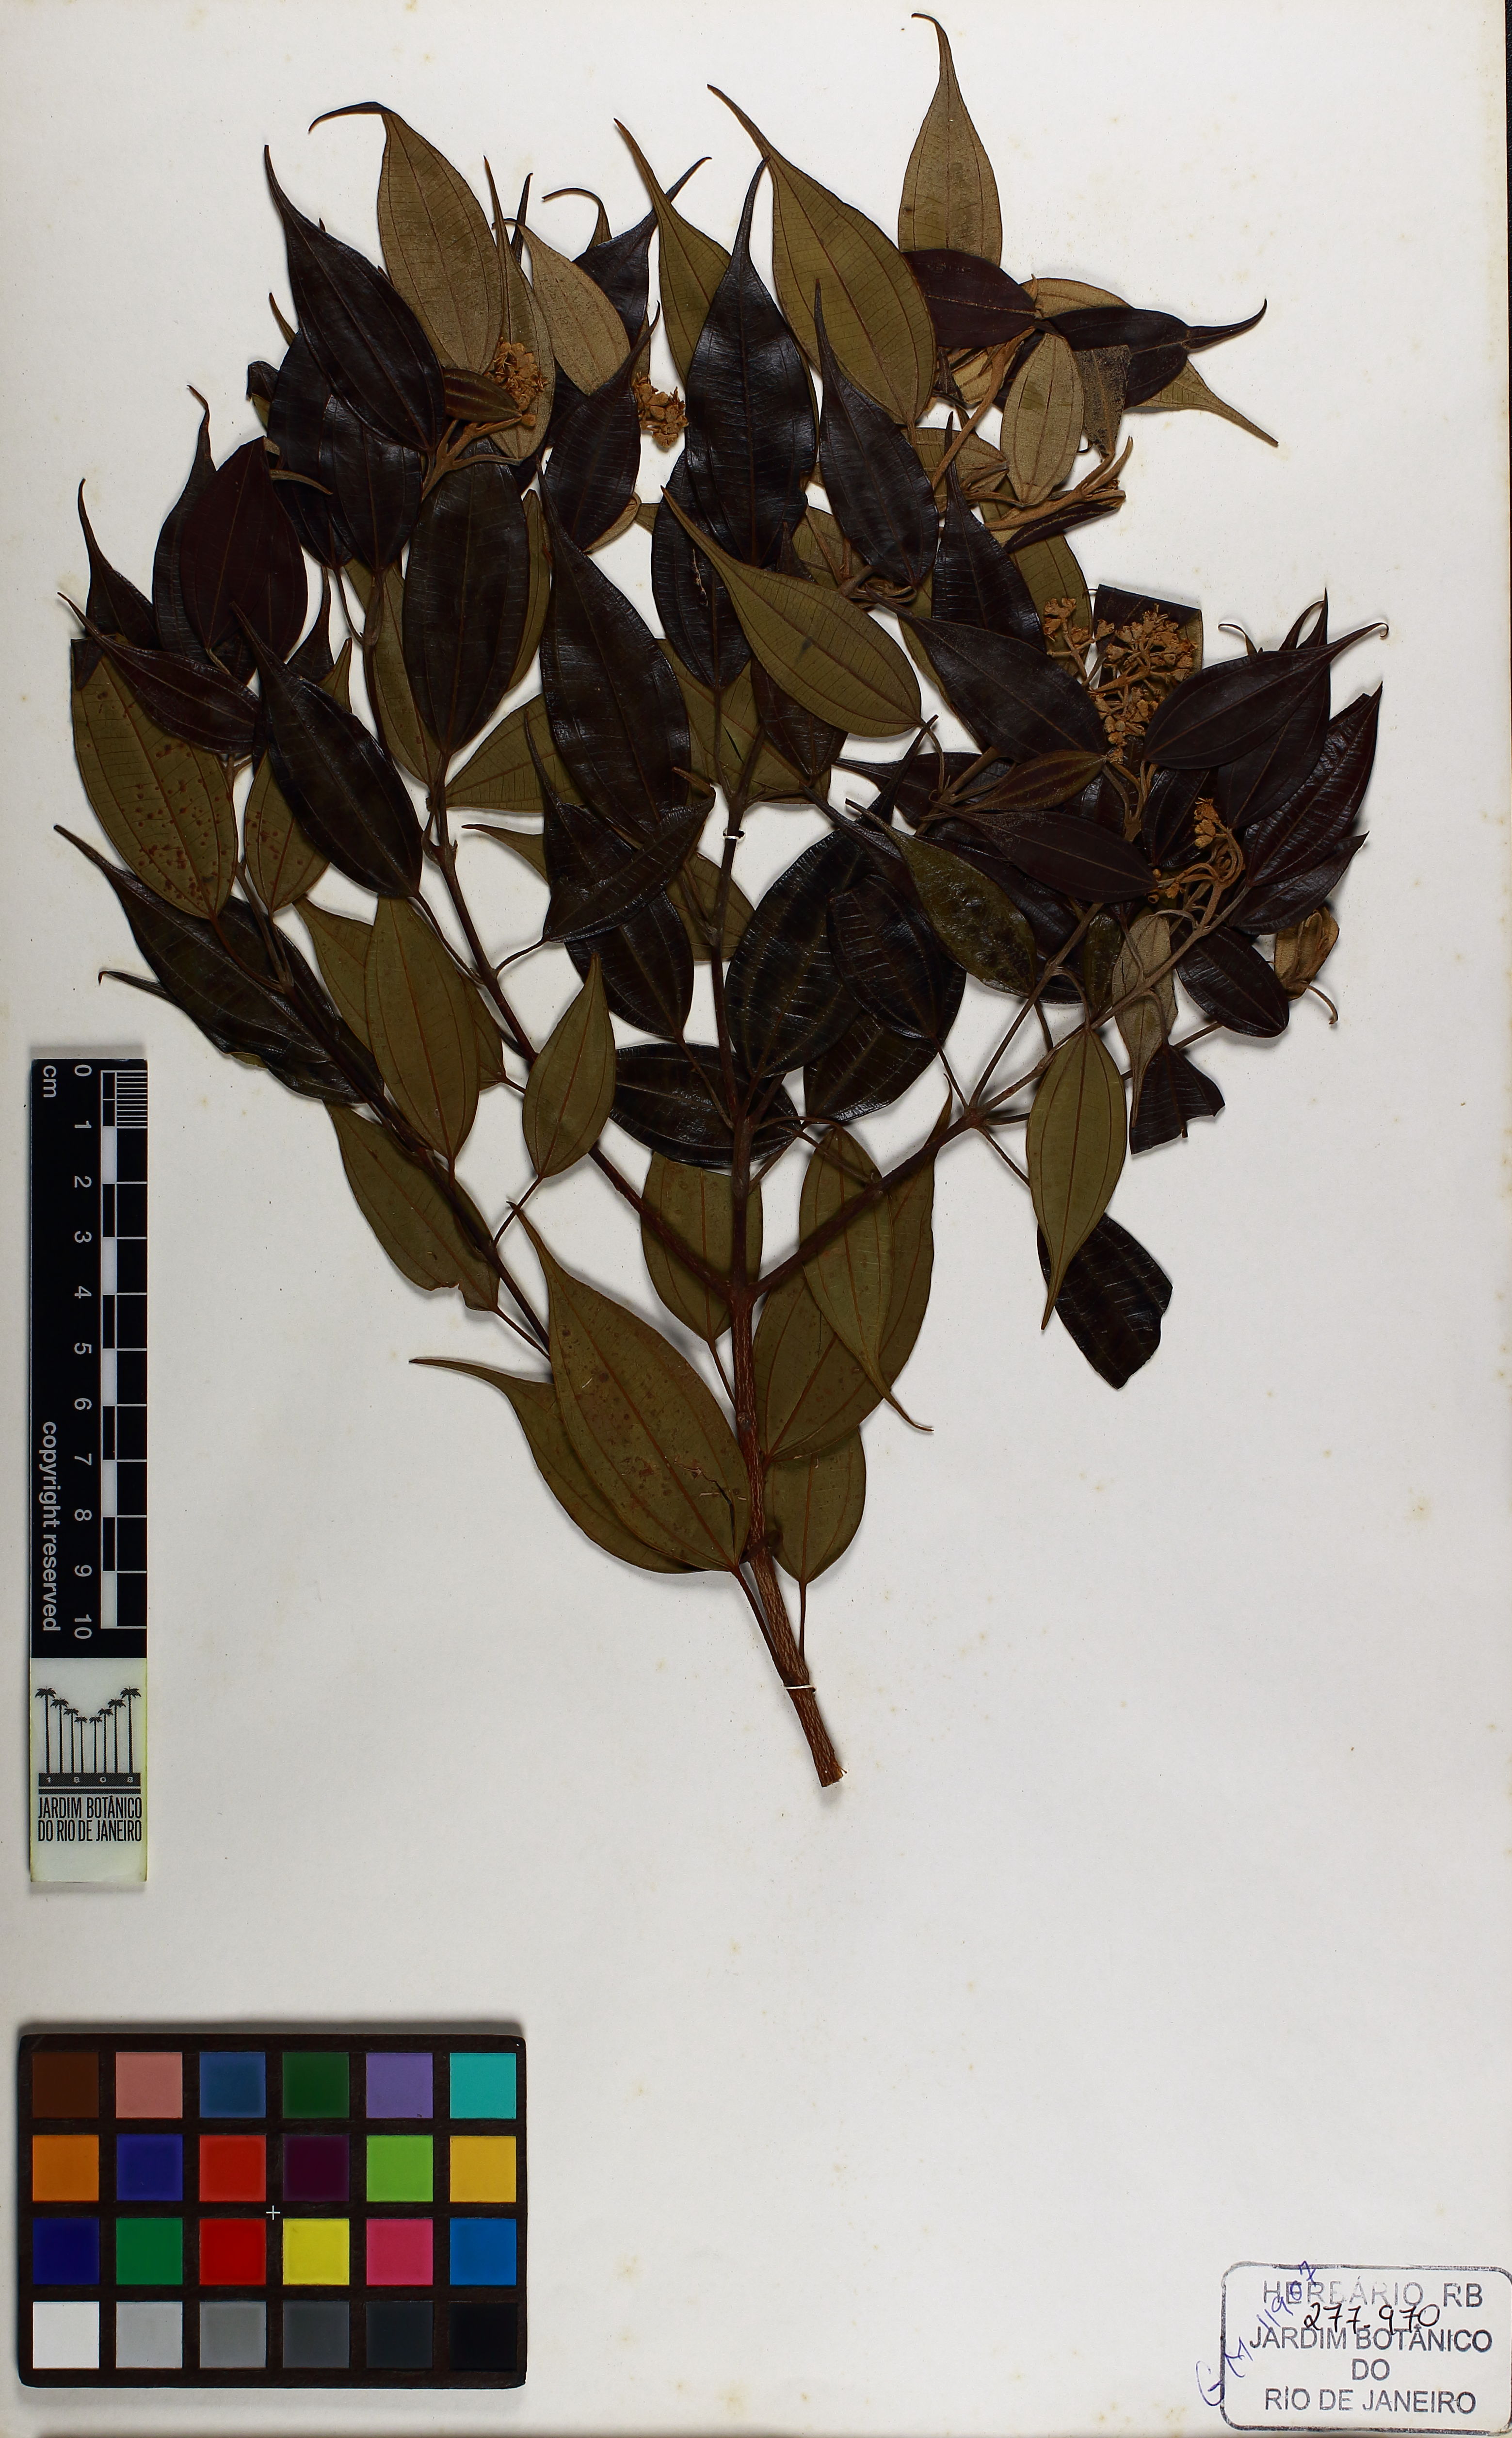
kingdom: Plantae
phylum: Tracheophyta
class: Magnoliopsida
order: Myrtales
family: Melastomataceae
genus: Miconia
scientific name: Miconia subvernicosa
